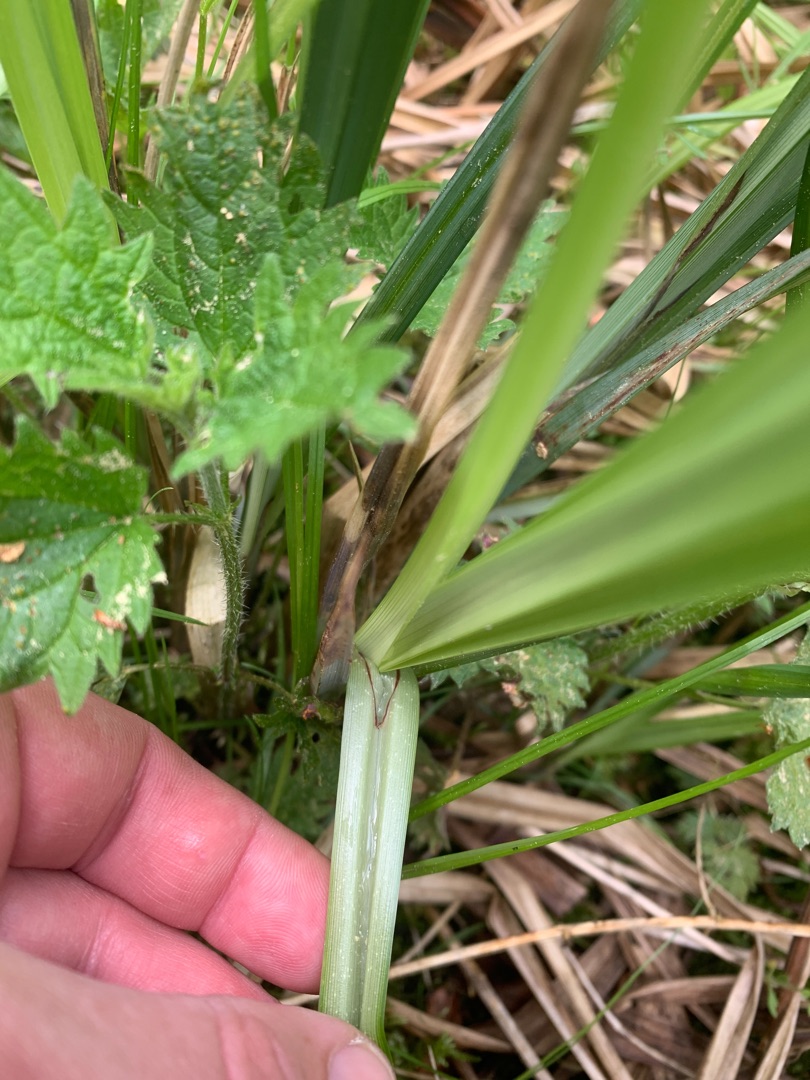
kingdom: Plantae
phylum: Tracheophyta
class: Liliopsida
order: Poales
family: Cyperaceae
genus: Carex
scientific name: Carex acutiformis
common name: Kær-star
